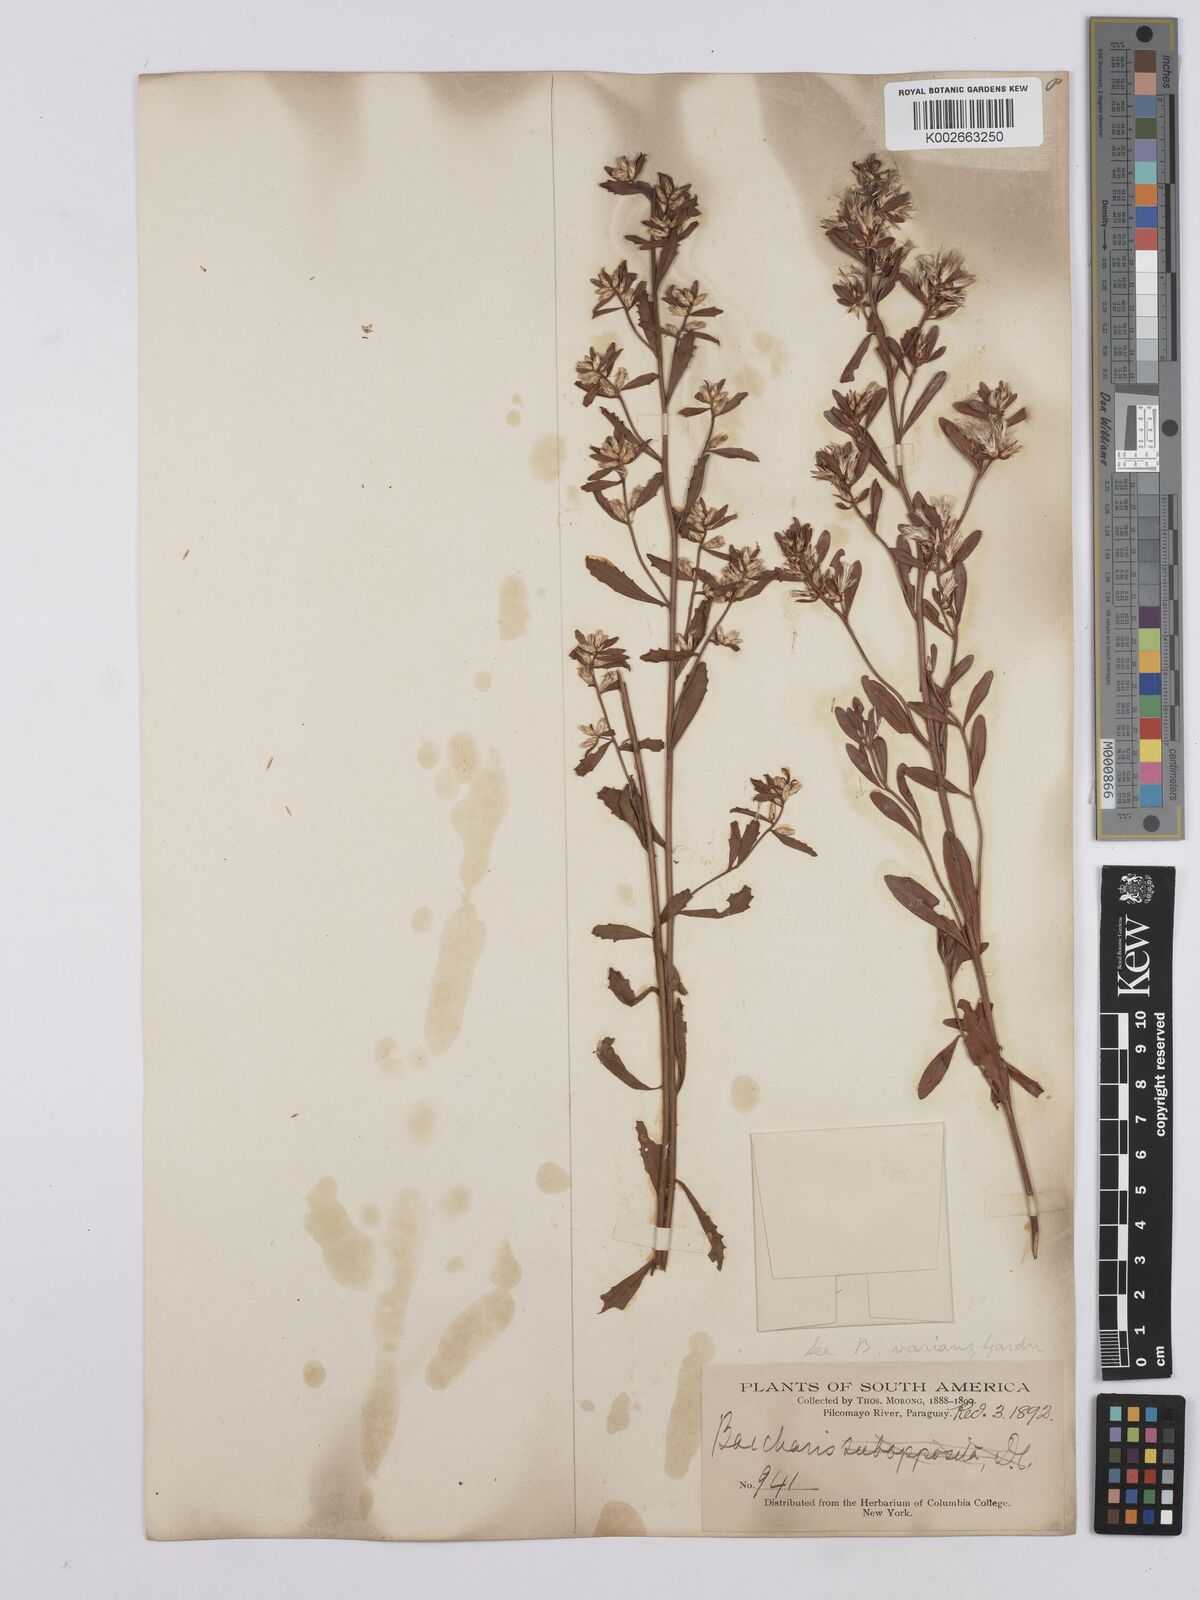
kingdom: Plantae
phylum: Tracheophyta
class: Magnoliopsida
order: Asterales
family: Asteraceae
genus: Baccharis
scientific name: Baccharis varians
